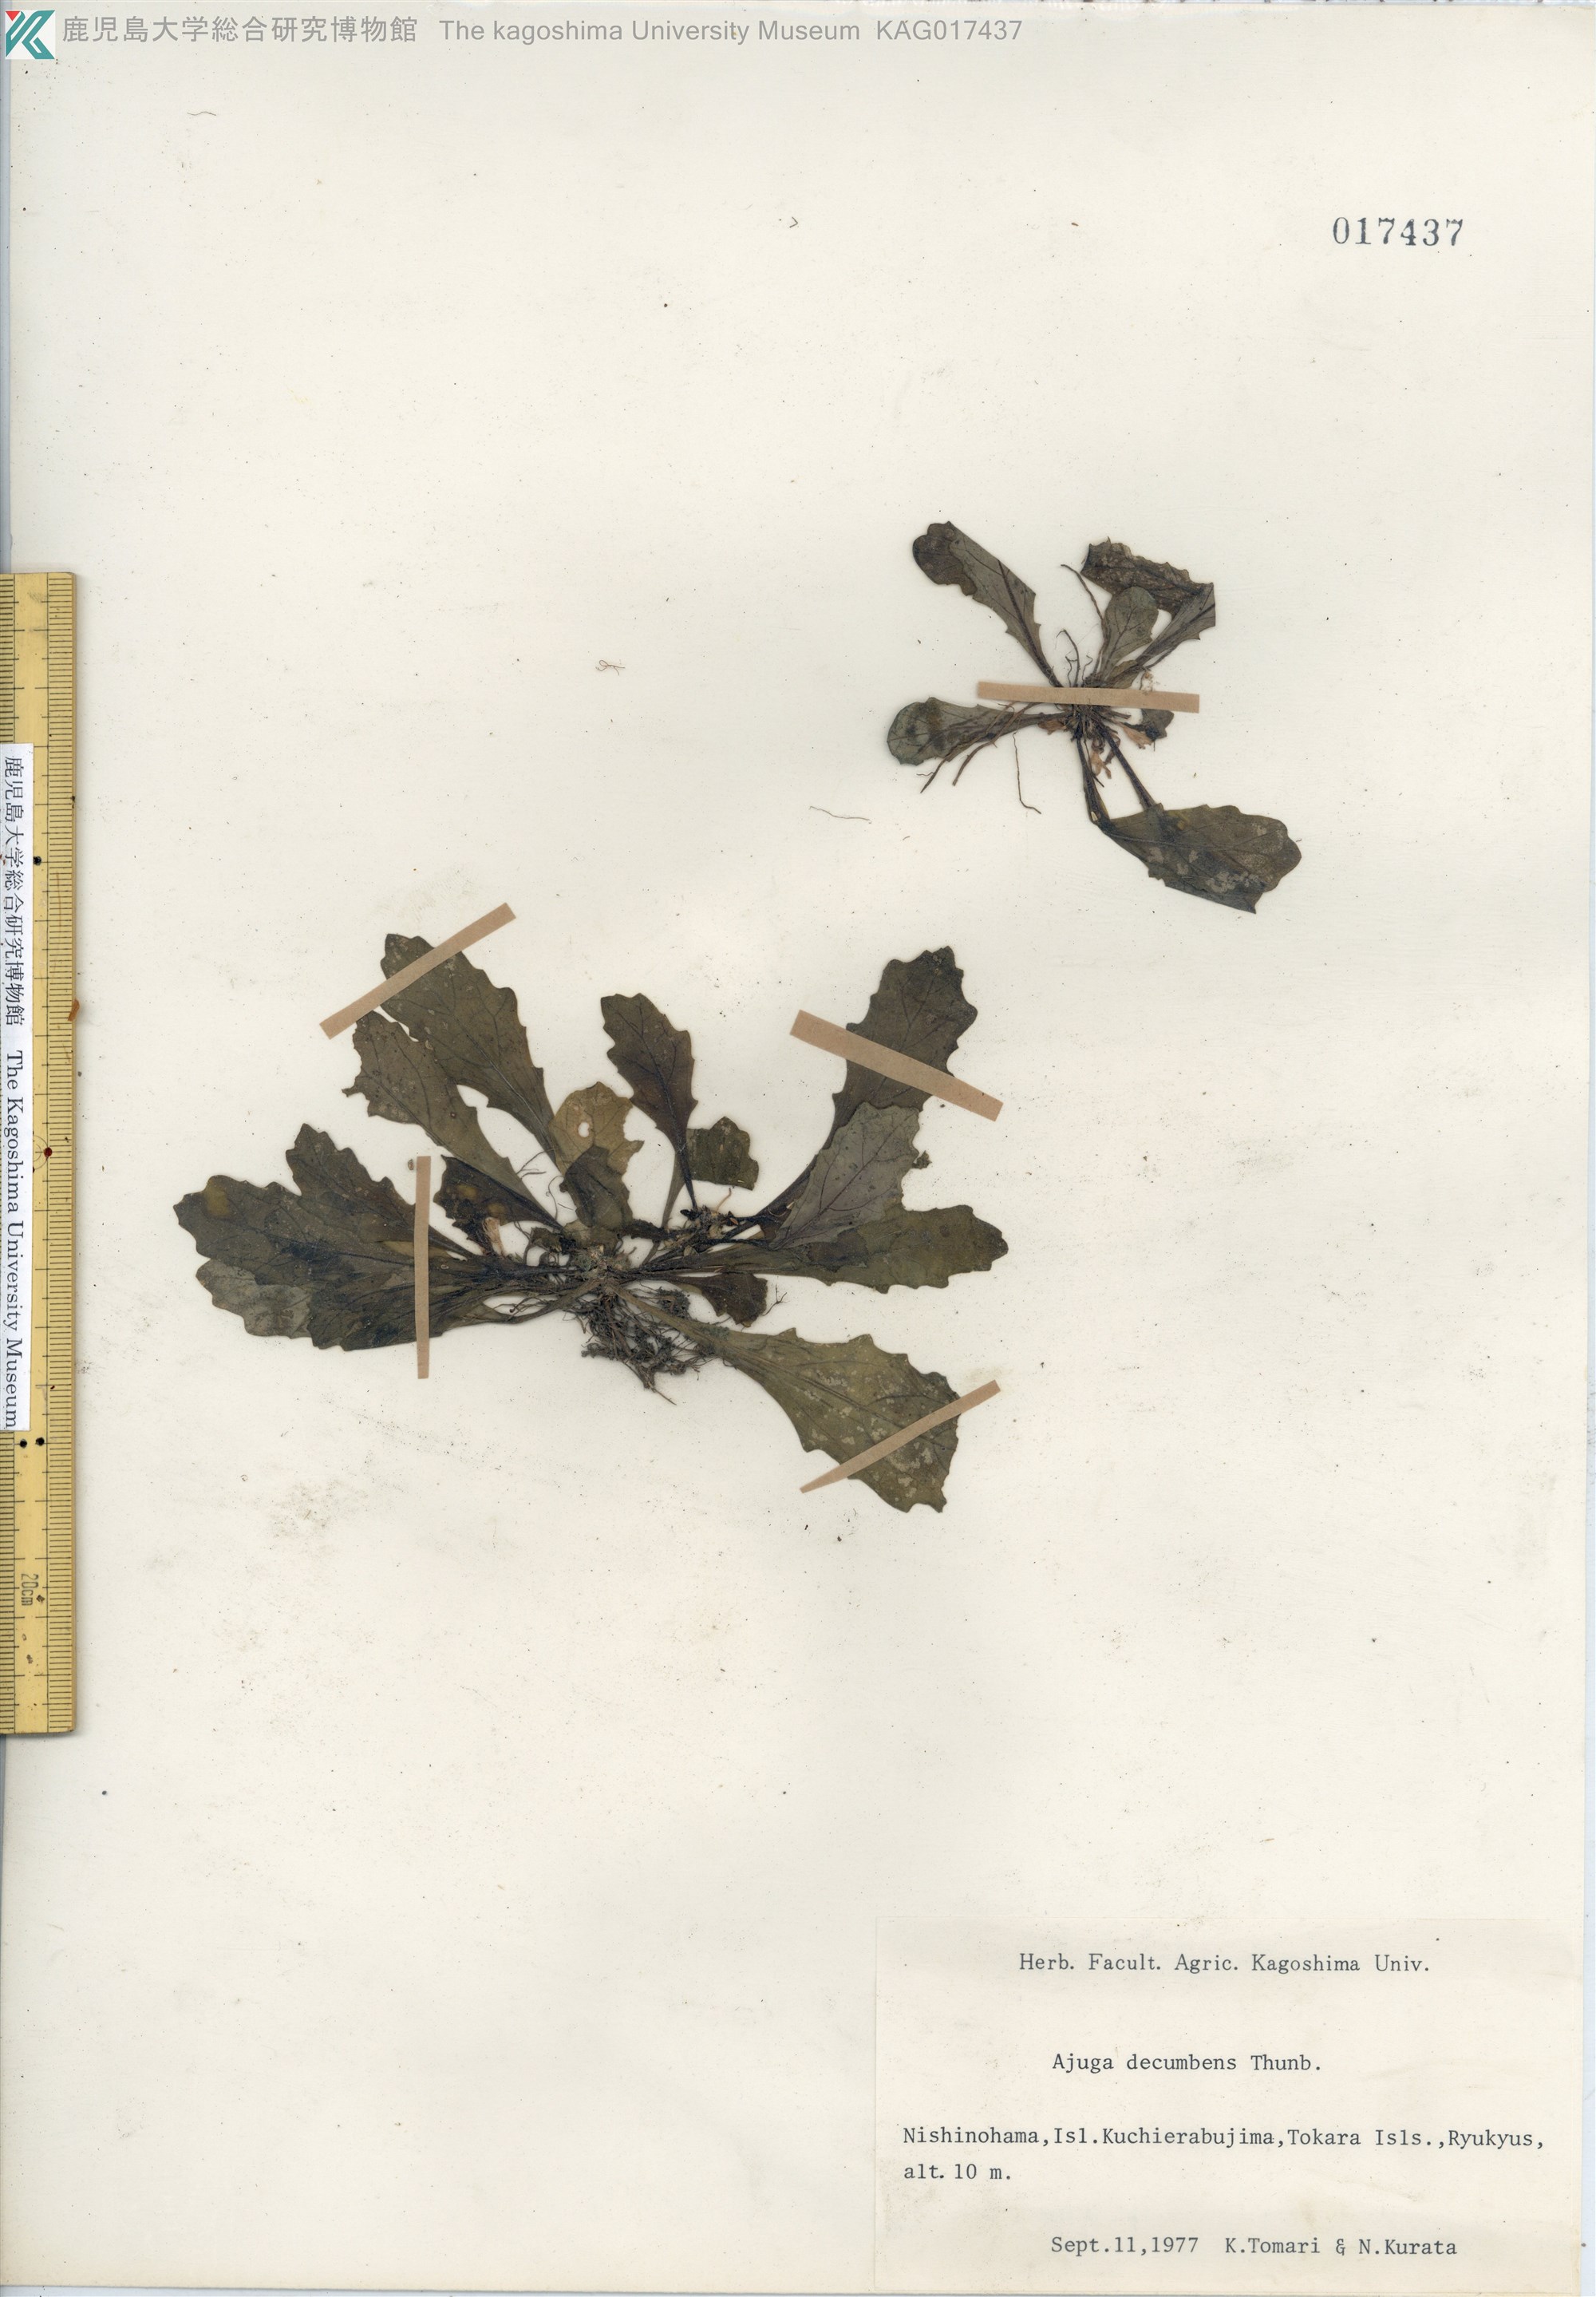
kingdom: Plantae
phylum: Tracheophyta
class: Magnoliopsida
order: Lamiales
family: Lamiaceae
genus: Ajuga
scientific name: Ajuga decumbens
